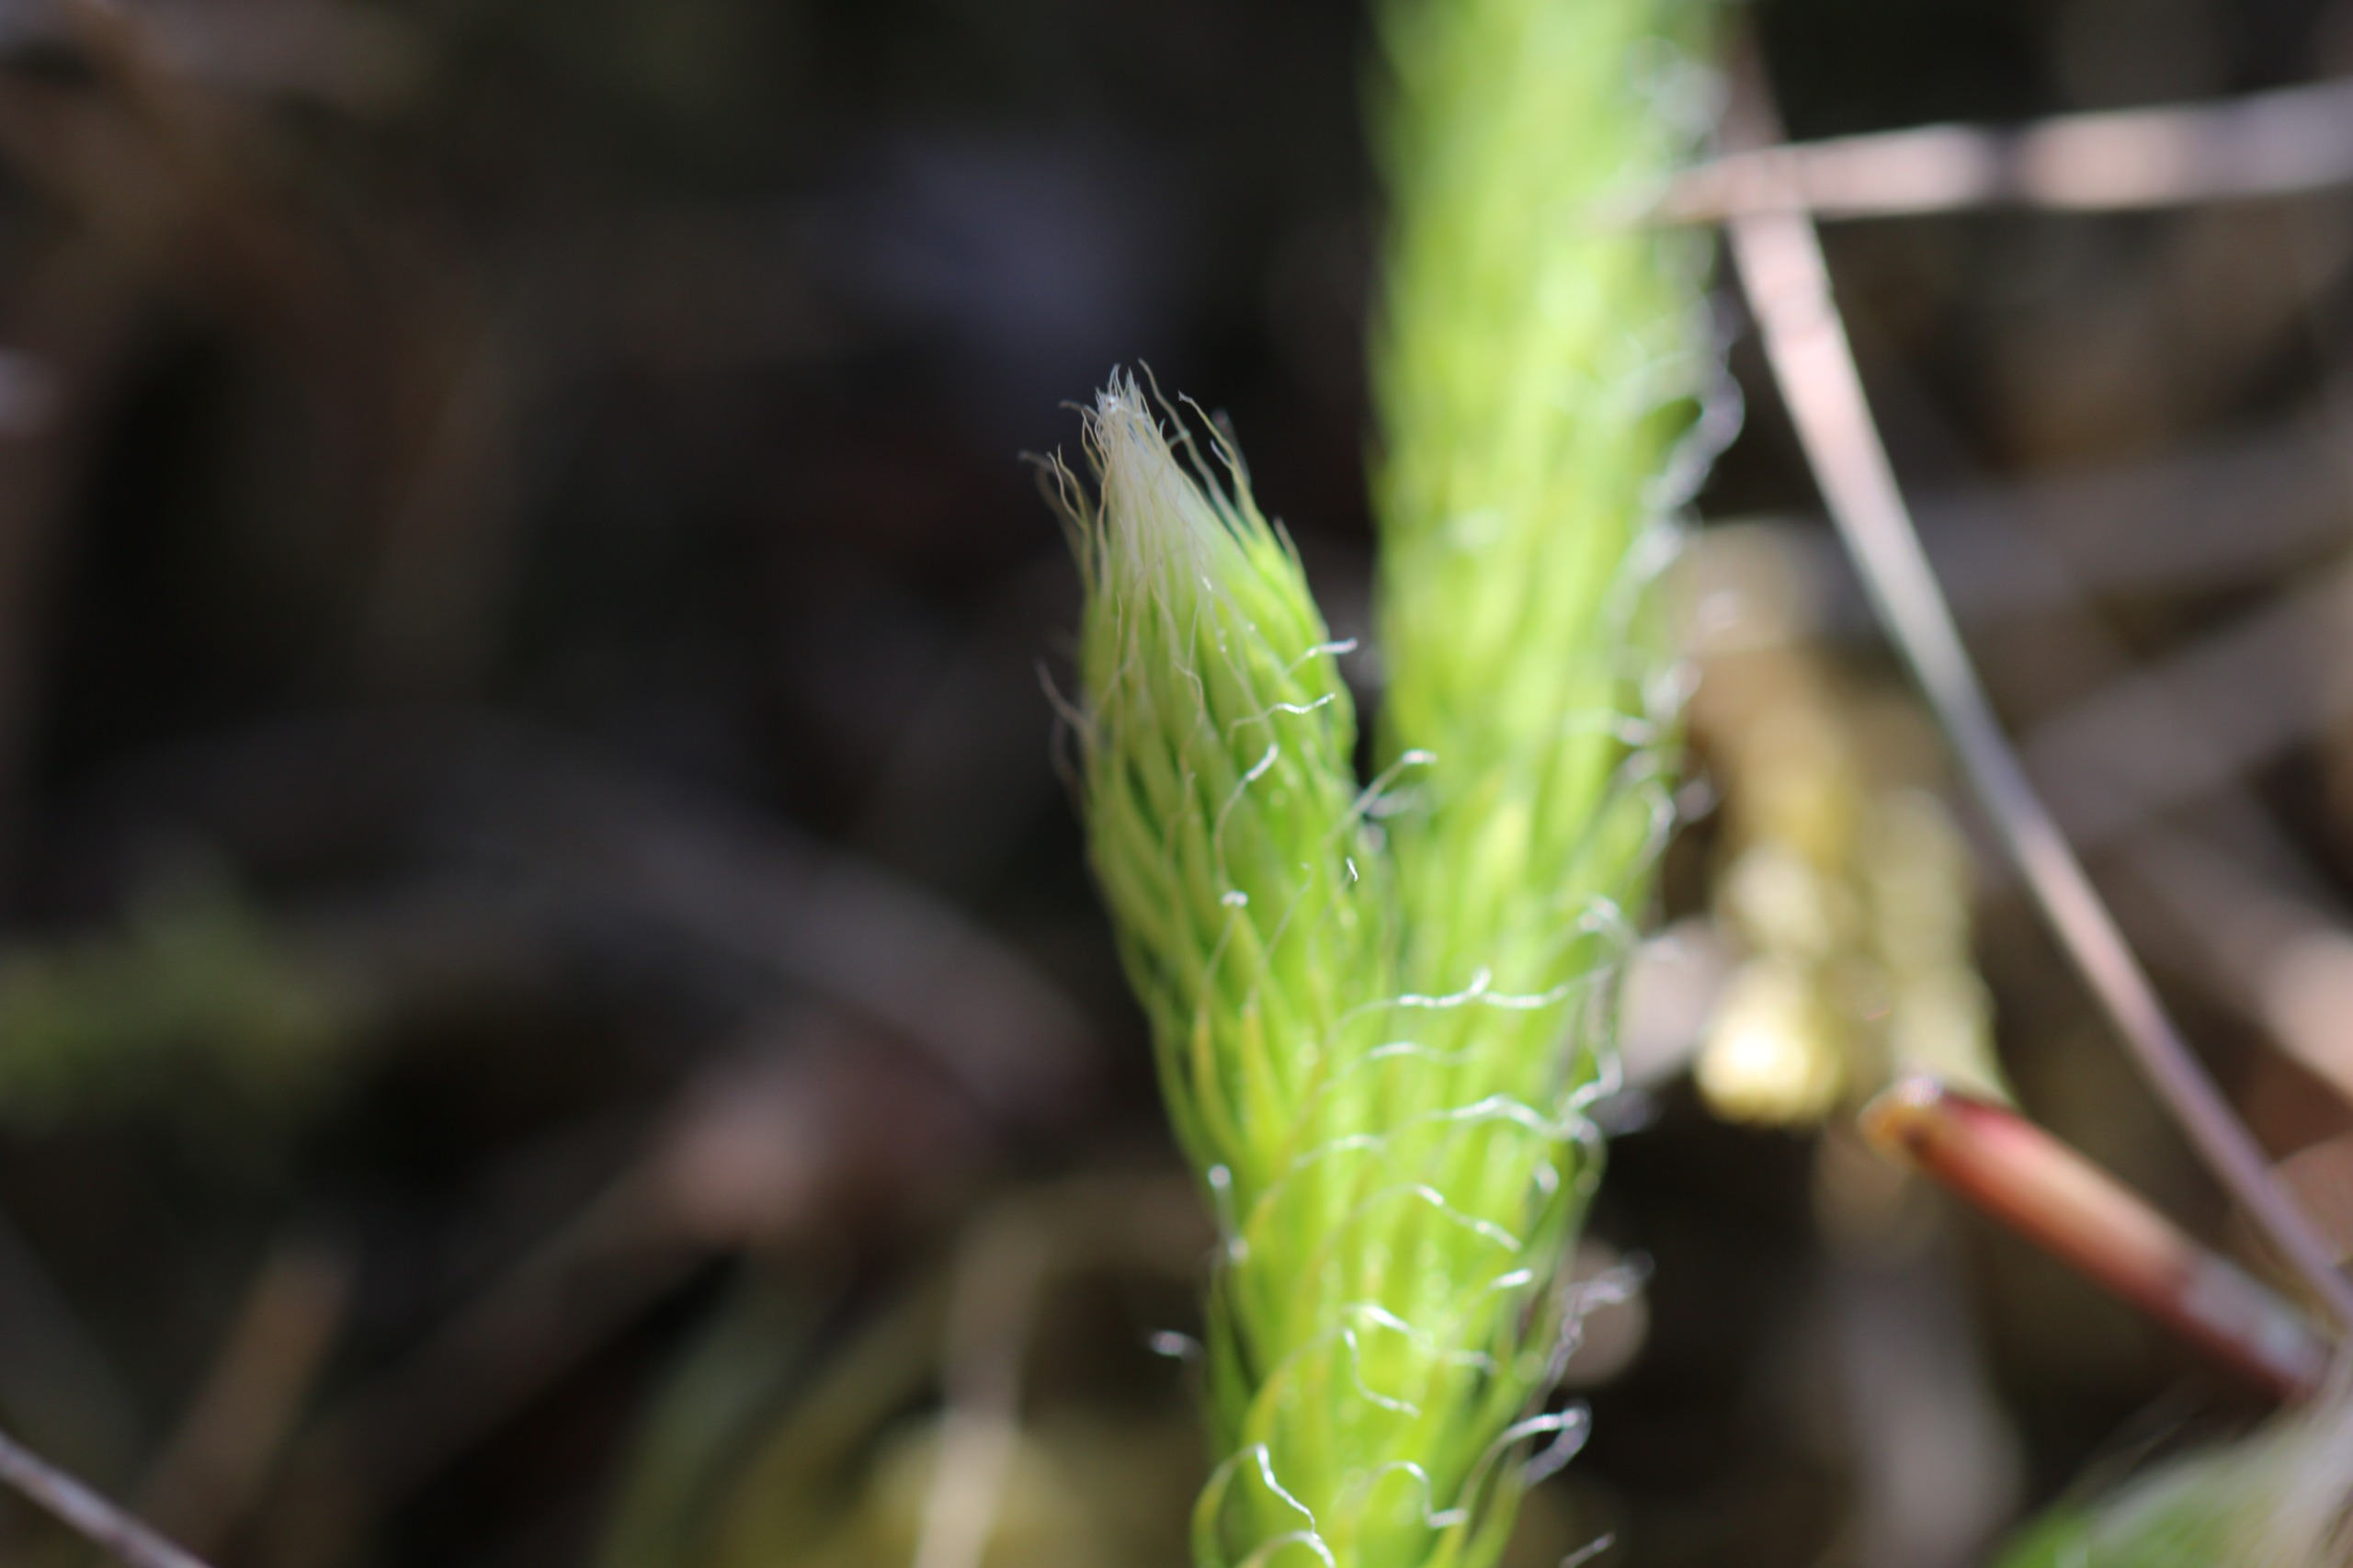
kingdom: Plantae
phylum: Tracheophyta
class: Lycopodiopsida
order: Lycopodiales
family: Lycopodiaceae
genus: Lycopodium
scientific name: Lycopodium clavatum
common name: Almindelig ulvefod
